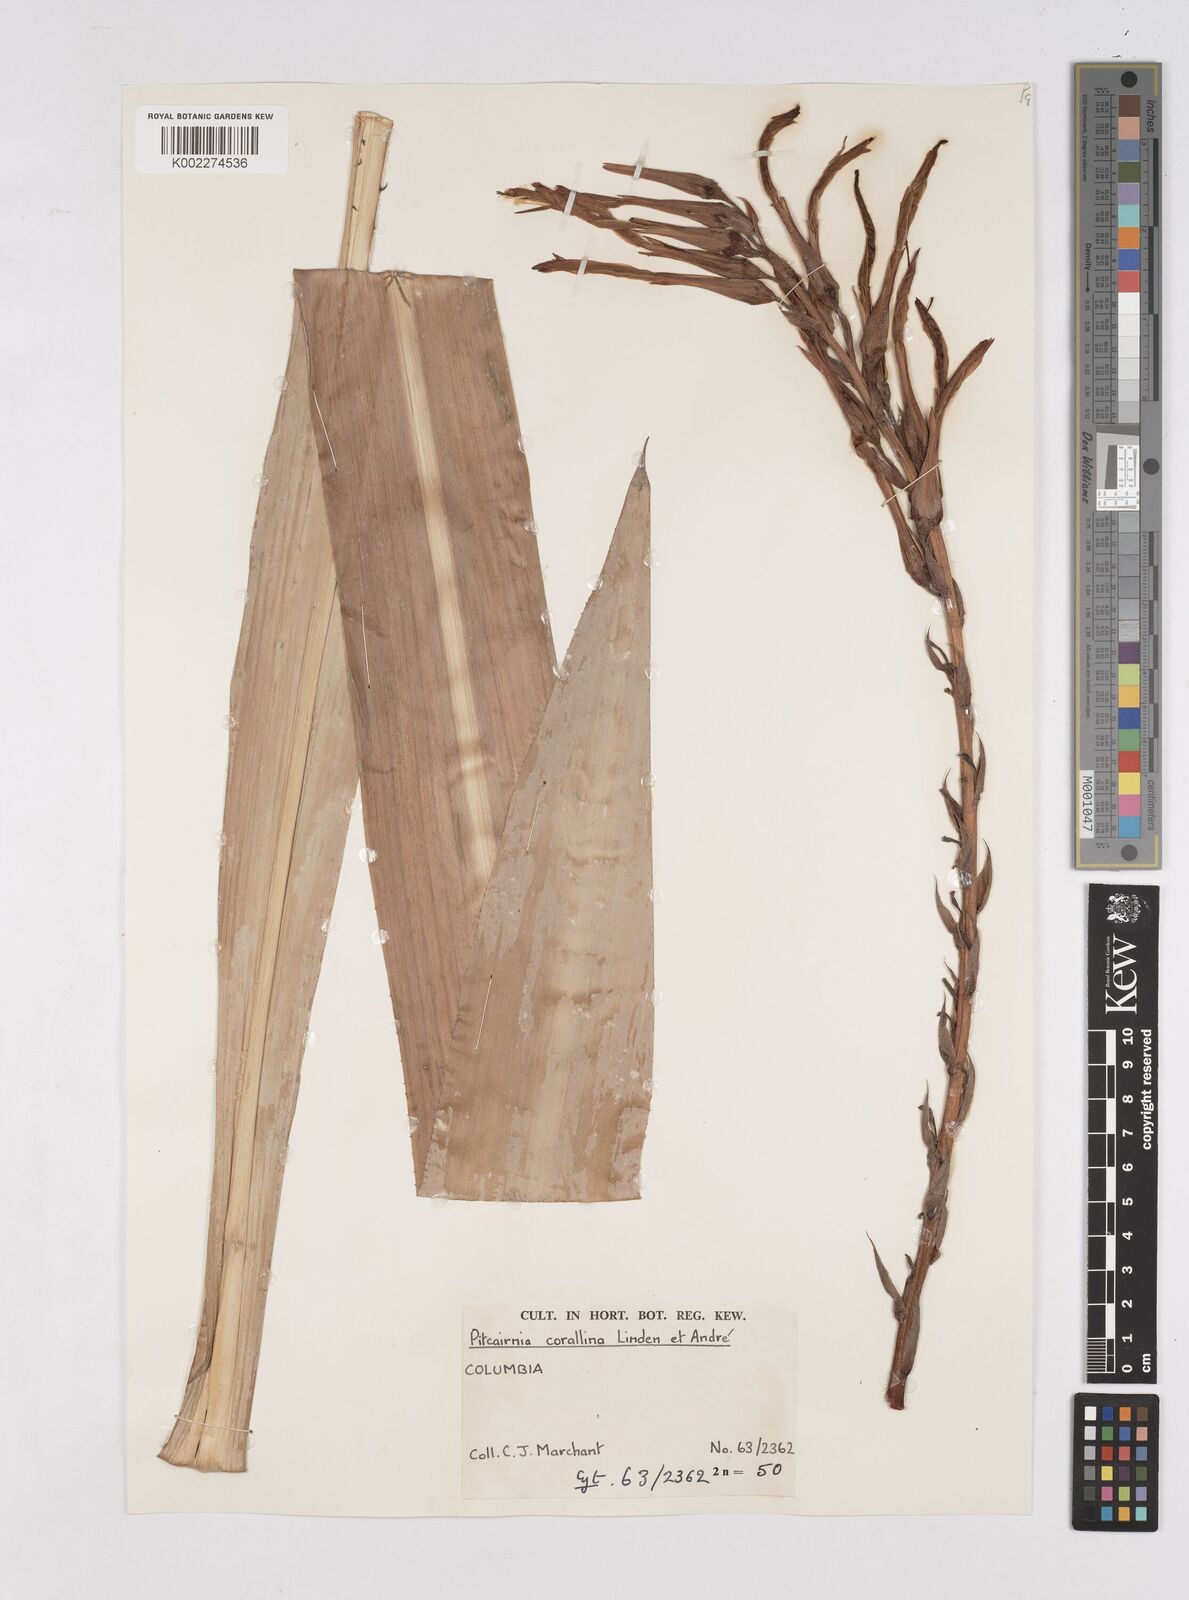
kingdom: Plantae
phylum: Tracheophyta
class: Liliopsida
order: Poales
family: Bromeliaceae
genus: Pitcairnia
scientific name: Pitcairnia corallina
